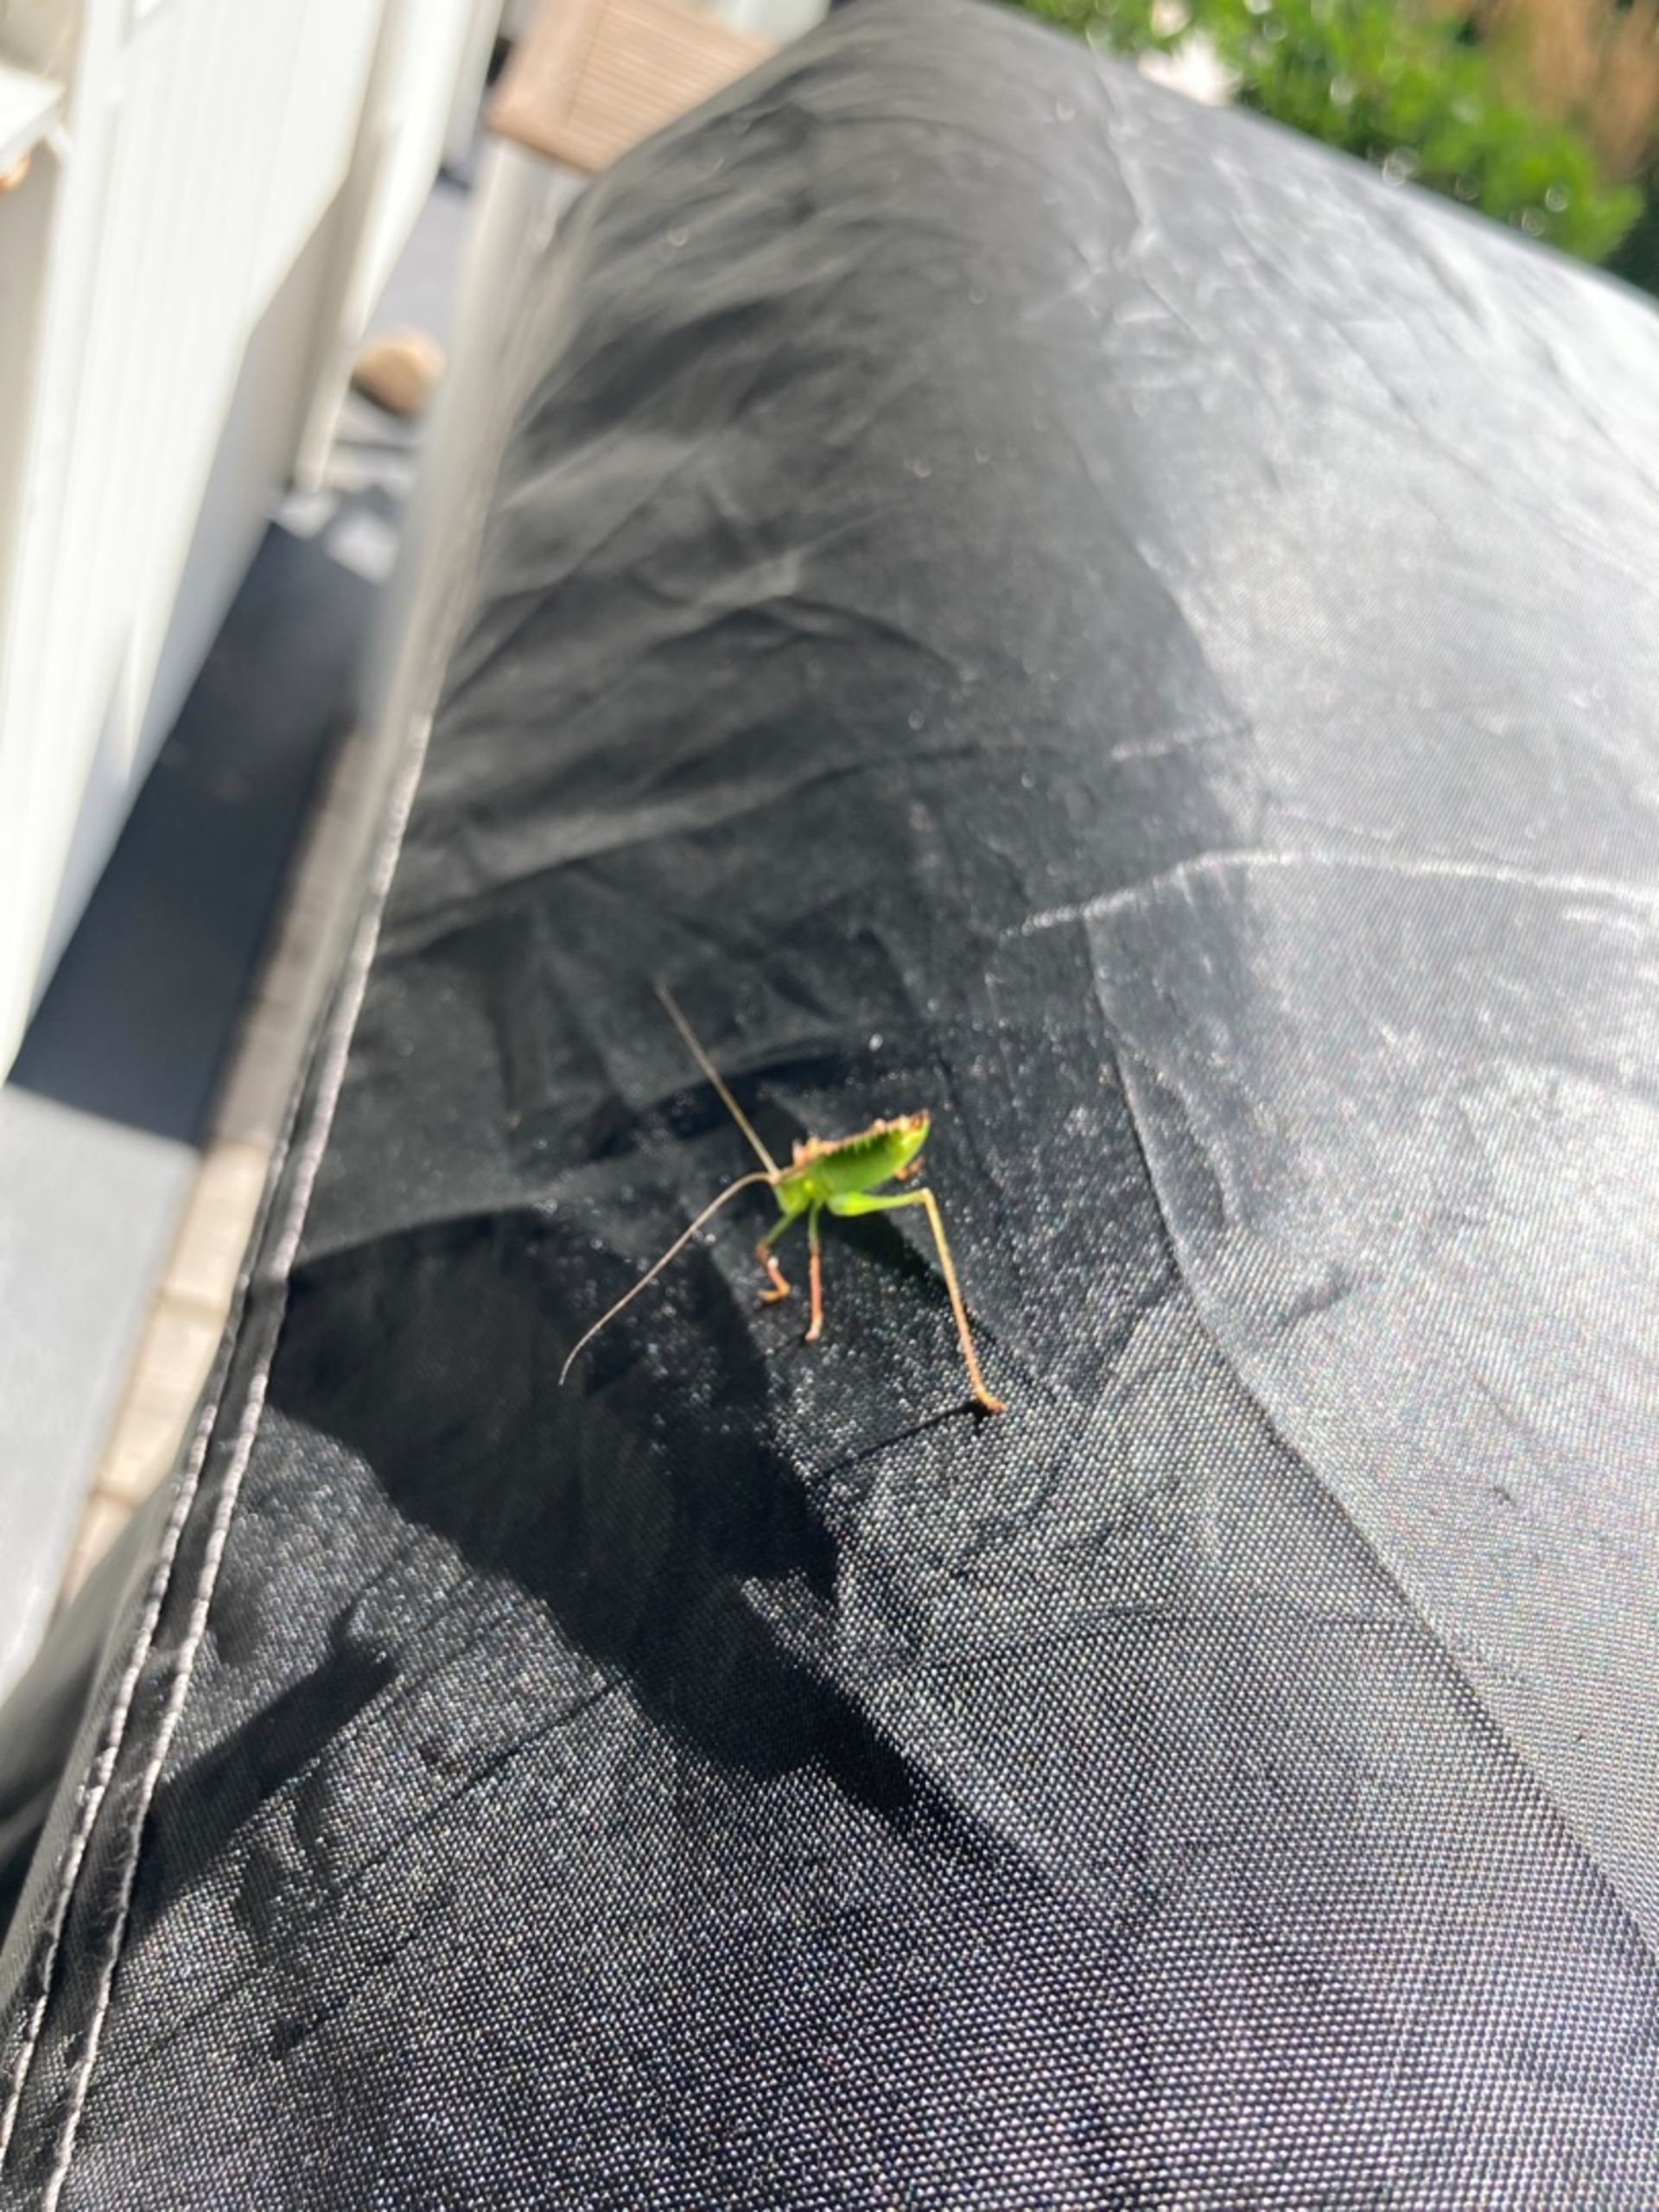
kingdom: Animalia
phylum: Arthropoda
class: Insecta
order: Orthoptera
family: Tettigoniidae
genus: Leptophyes
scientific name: Leptophyes punctatissima
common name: Krumknivgræshoppe
